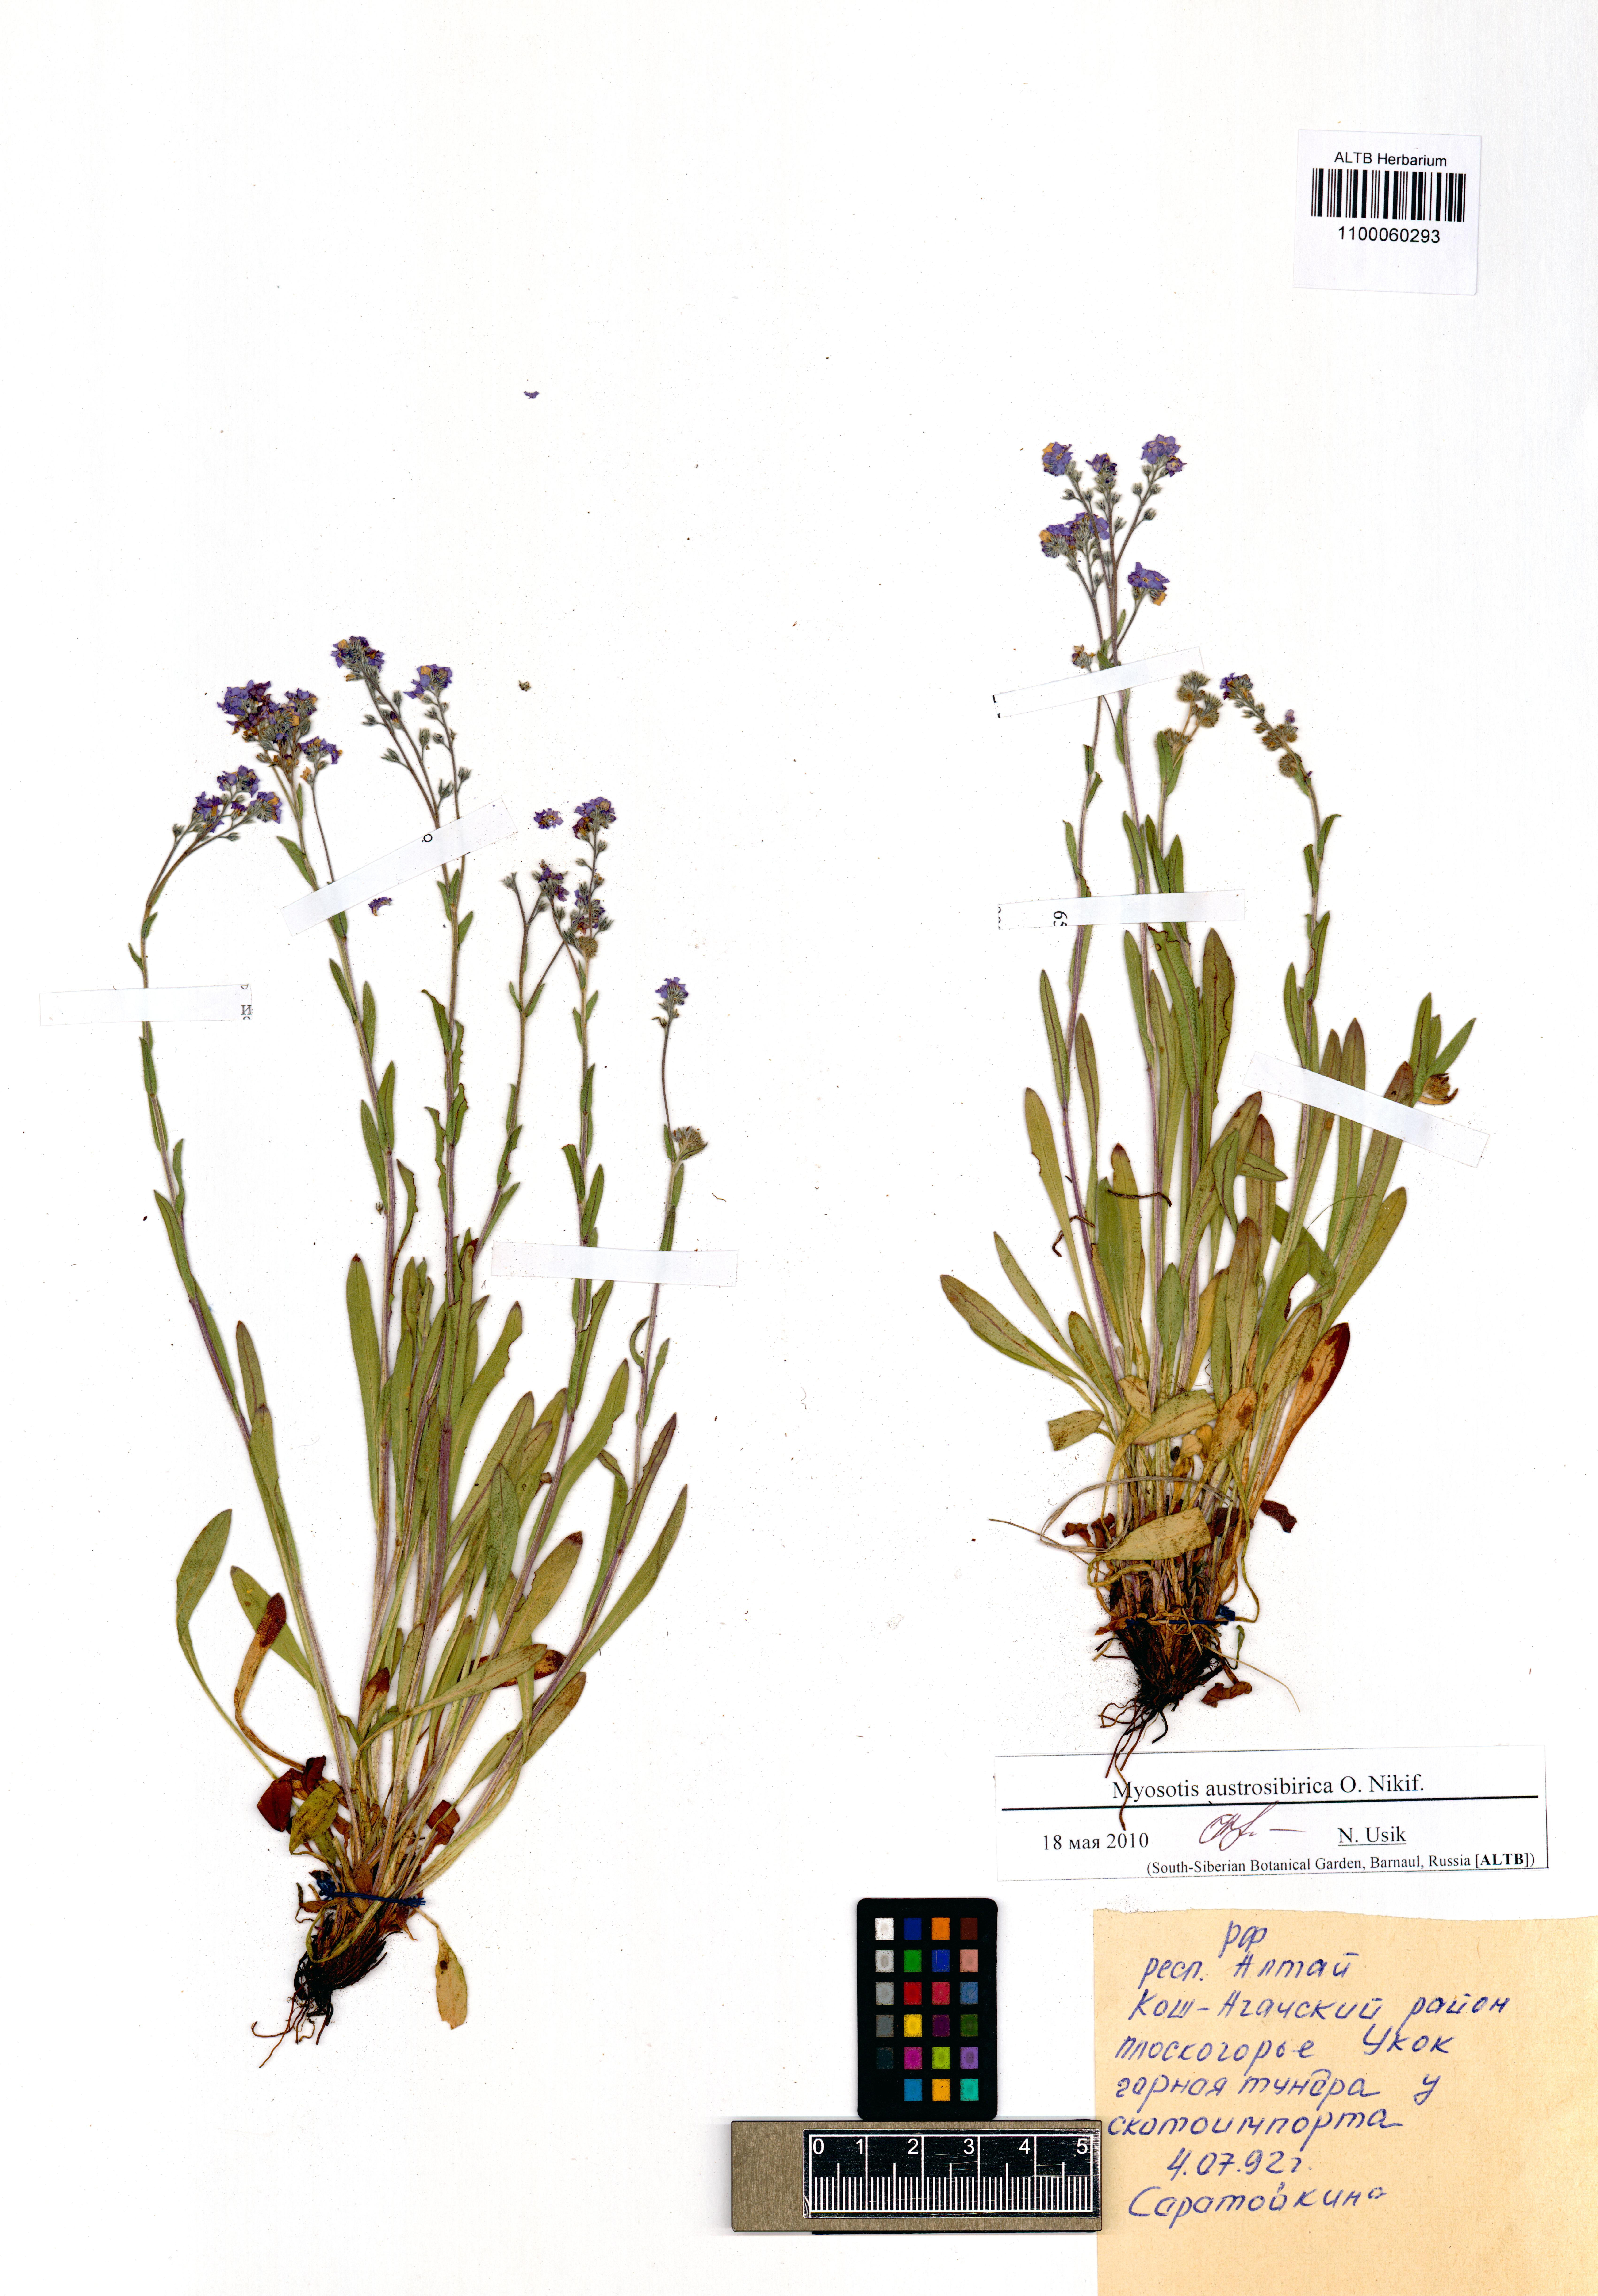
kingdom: Plantae
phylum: Tracheophyta
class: Magnoliopsida
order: Boraginales
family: Boraginaceae
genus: Myosotis
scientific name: Myosotis austrosibirica
